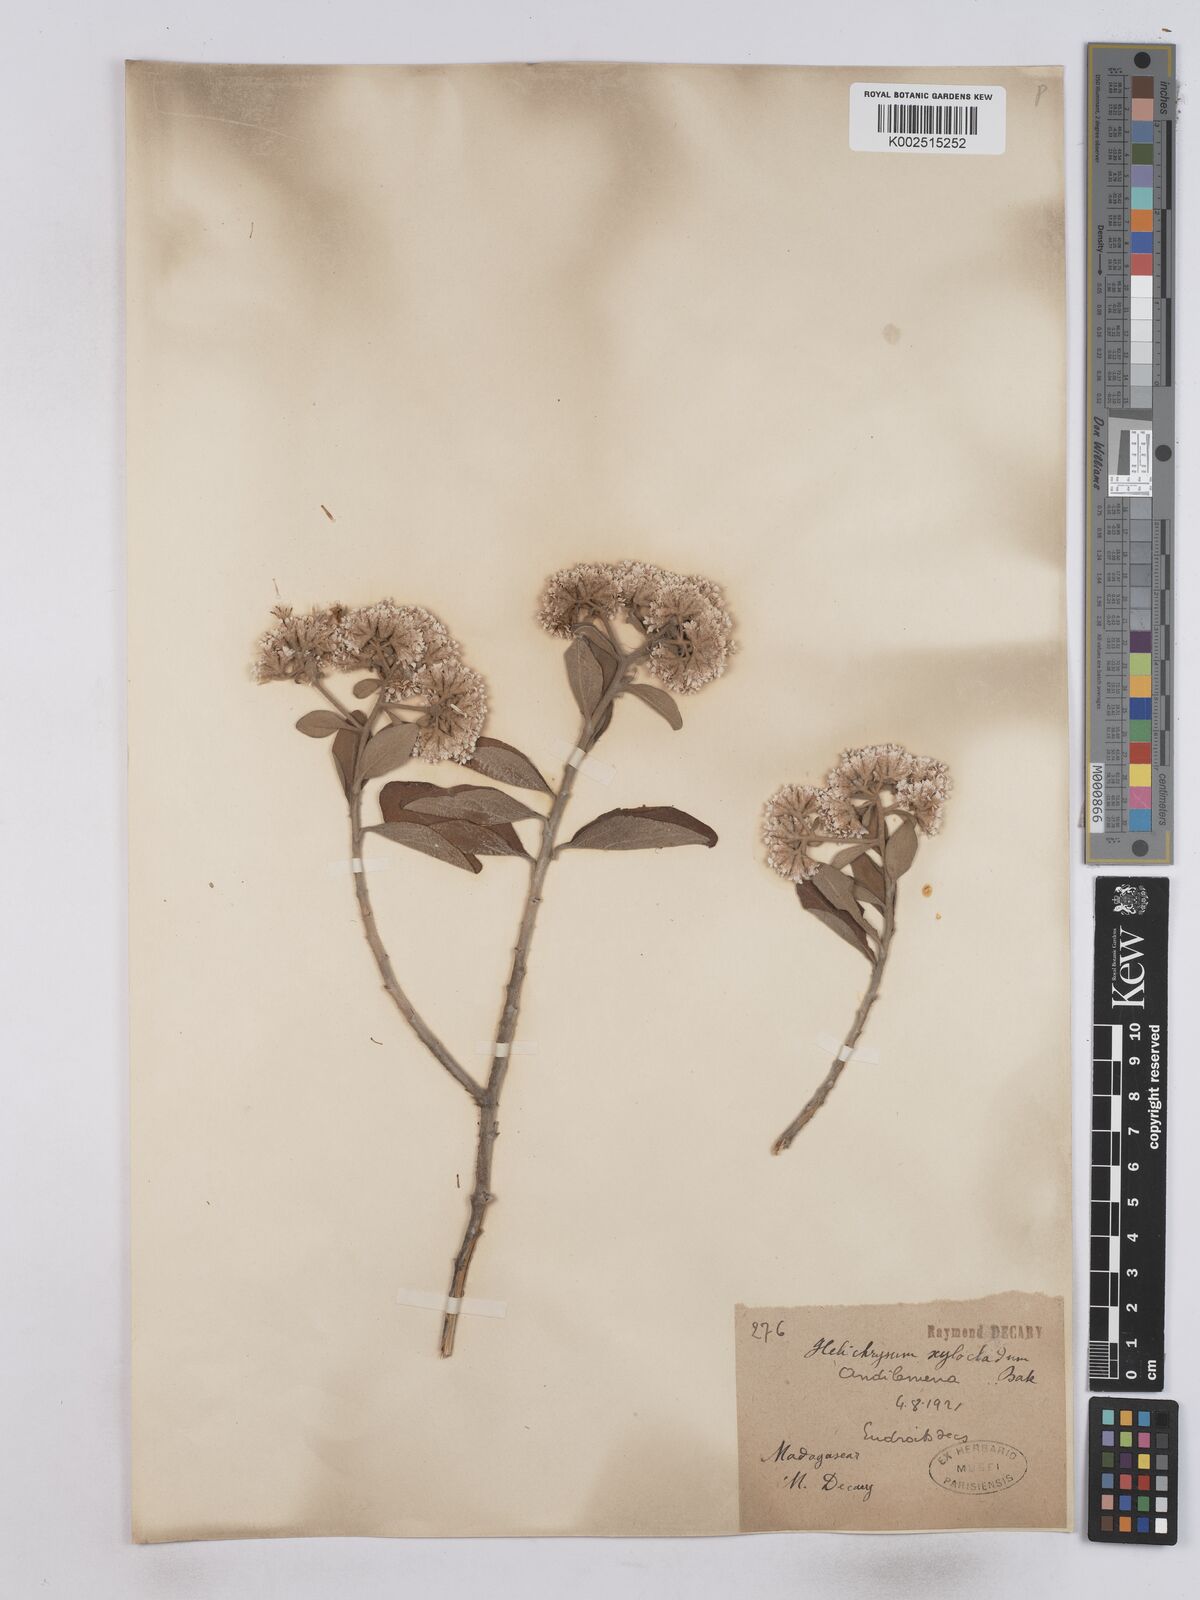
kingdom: Plantae
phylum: Tracheophyta
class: Magnoliopsida
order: Asterales
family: Asteraceae
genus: Helichrysum
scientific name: Helichrysum xylocladum
